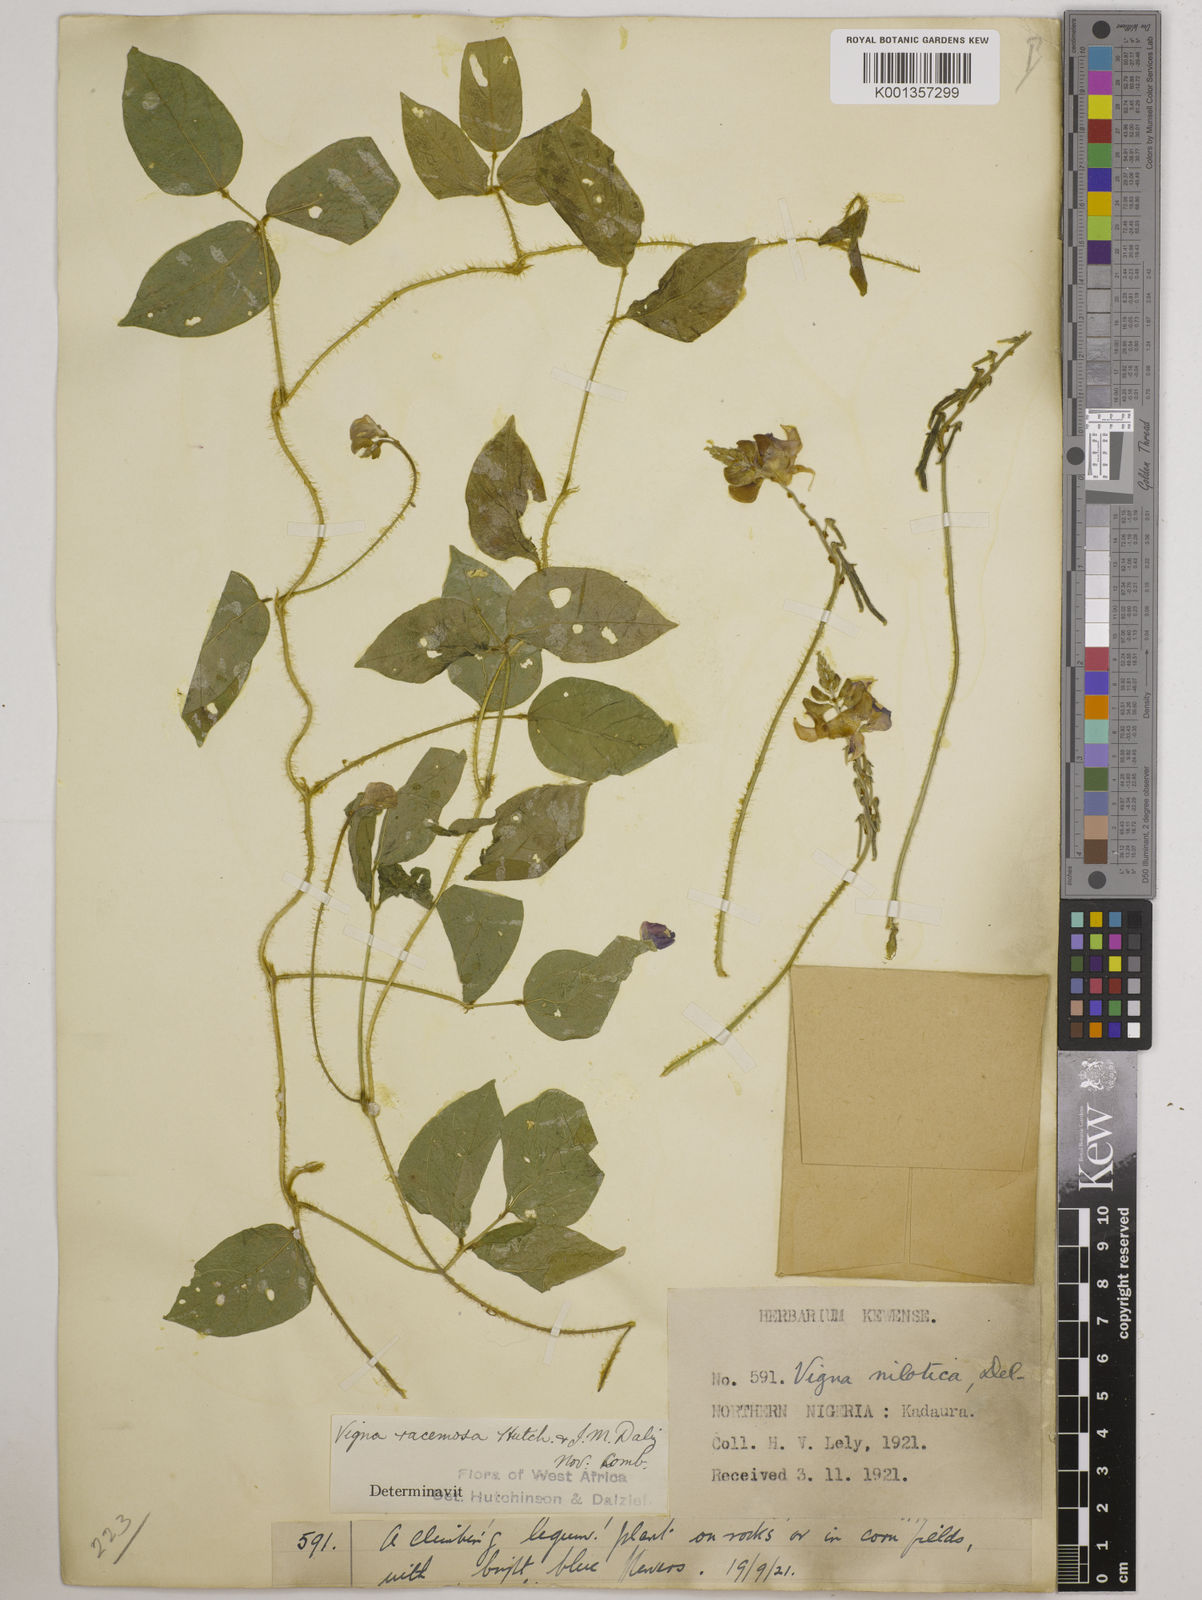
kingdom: Plantae
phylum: Tracheophyta
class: Magnoliopsida
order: Fabales
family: Fabaceae
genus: Vigna
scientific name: Vigna racemosa
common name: Beans not eaten
